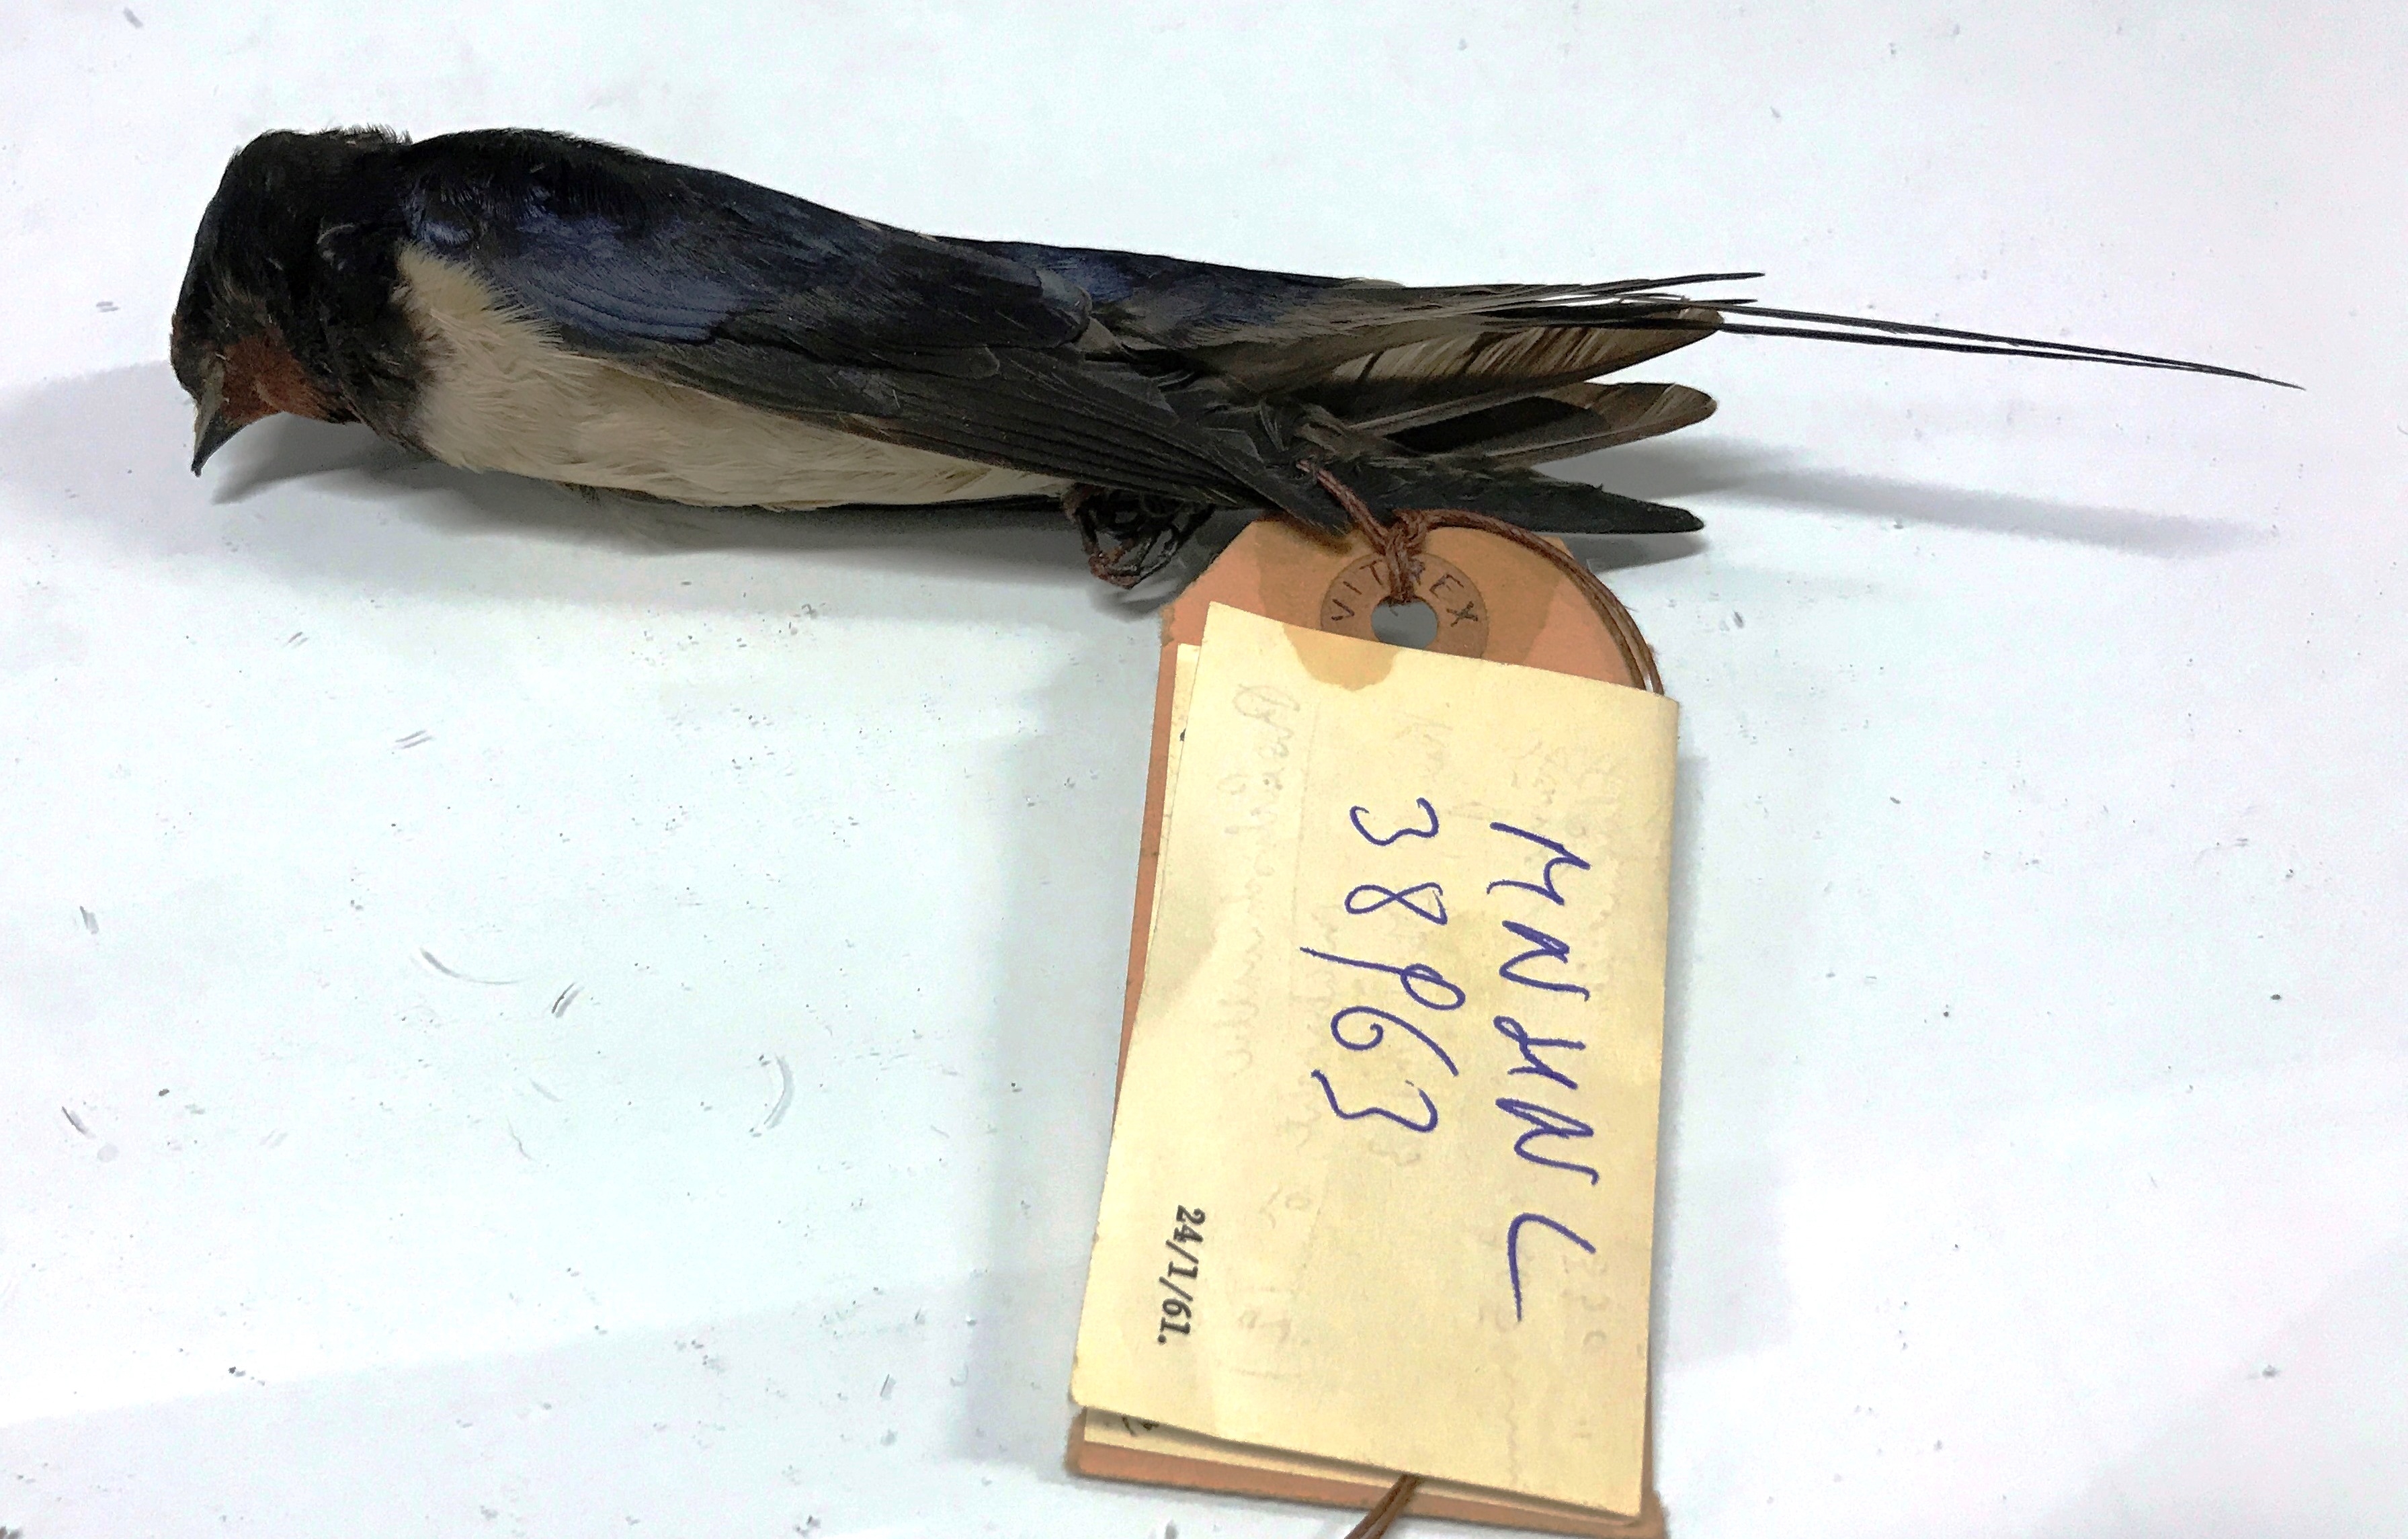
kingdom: Animalia
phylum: Chordata
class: Aves
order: Passeriformes
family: Hirundinidae
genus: Hirundo
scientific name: Hirundo rustica
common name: Barn swallow
